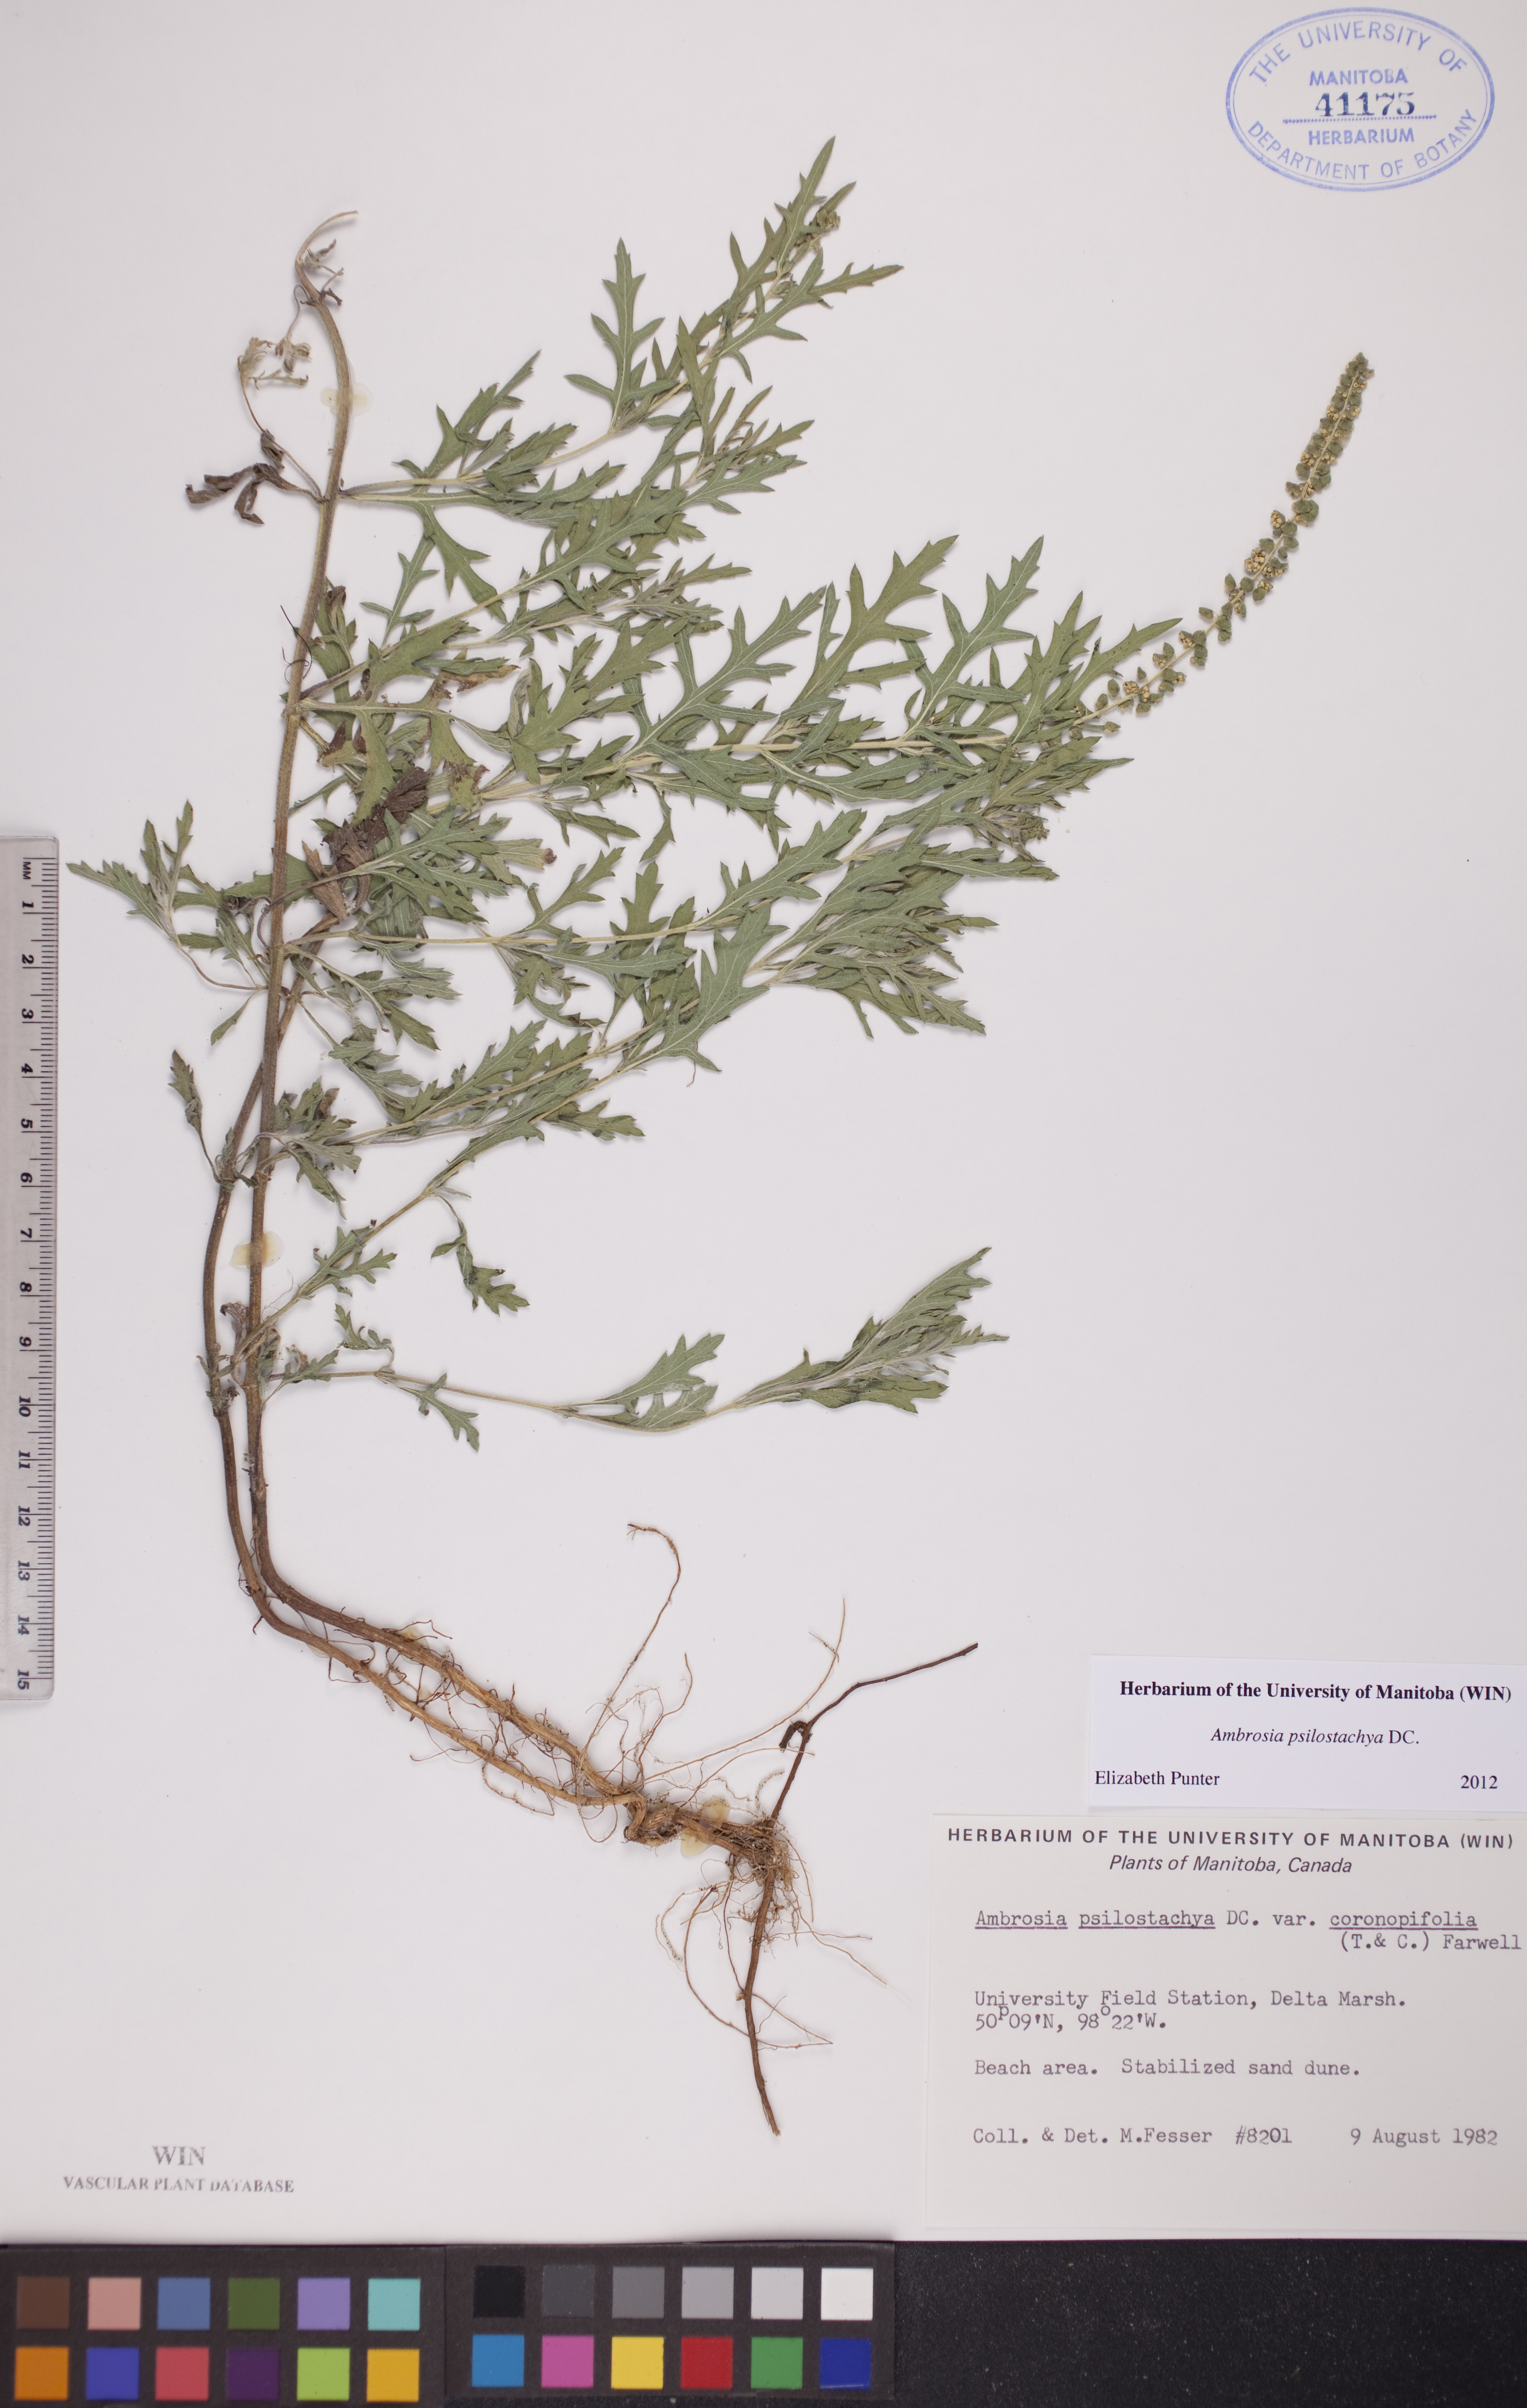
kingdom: Plantae
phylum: Tracheophyta
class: Magnoliopsida
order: Asterales
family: Asteraceae
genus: Ambrosia
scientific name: Ambrosia psilostachya
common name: Perennial ragweed
